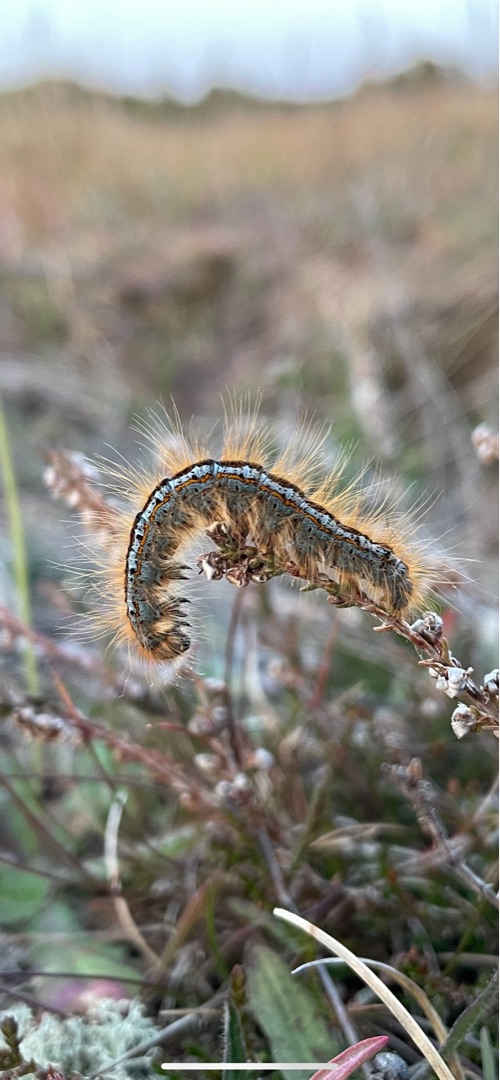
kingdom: Animalia
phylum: Arthropoda
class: Insecta
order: Lepidoptera
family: Lasiocampidae
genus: Malacosoma
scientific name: Malacosoma castrensis
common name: Redespinder
